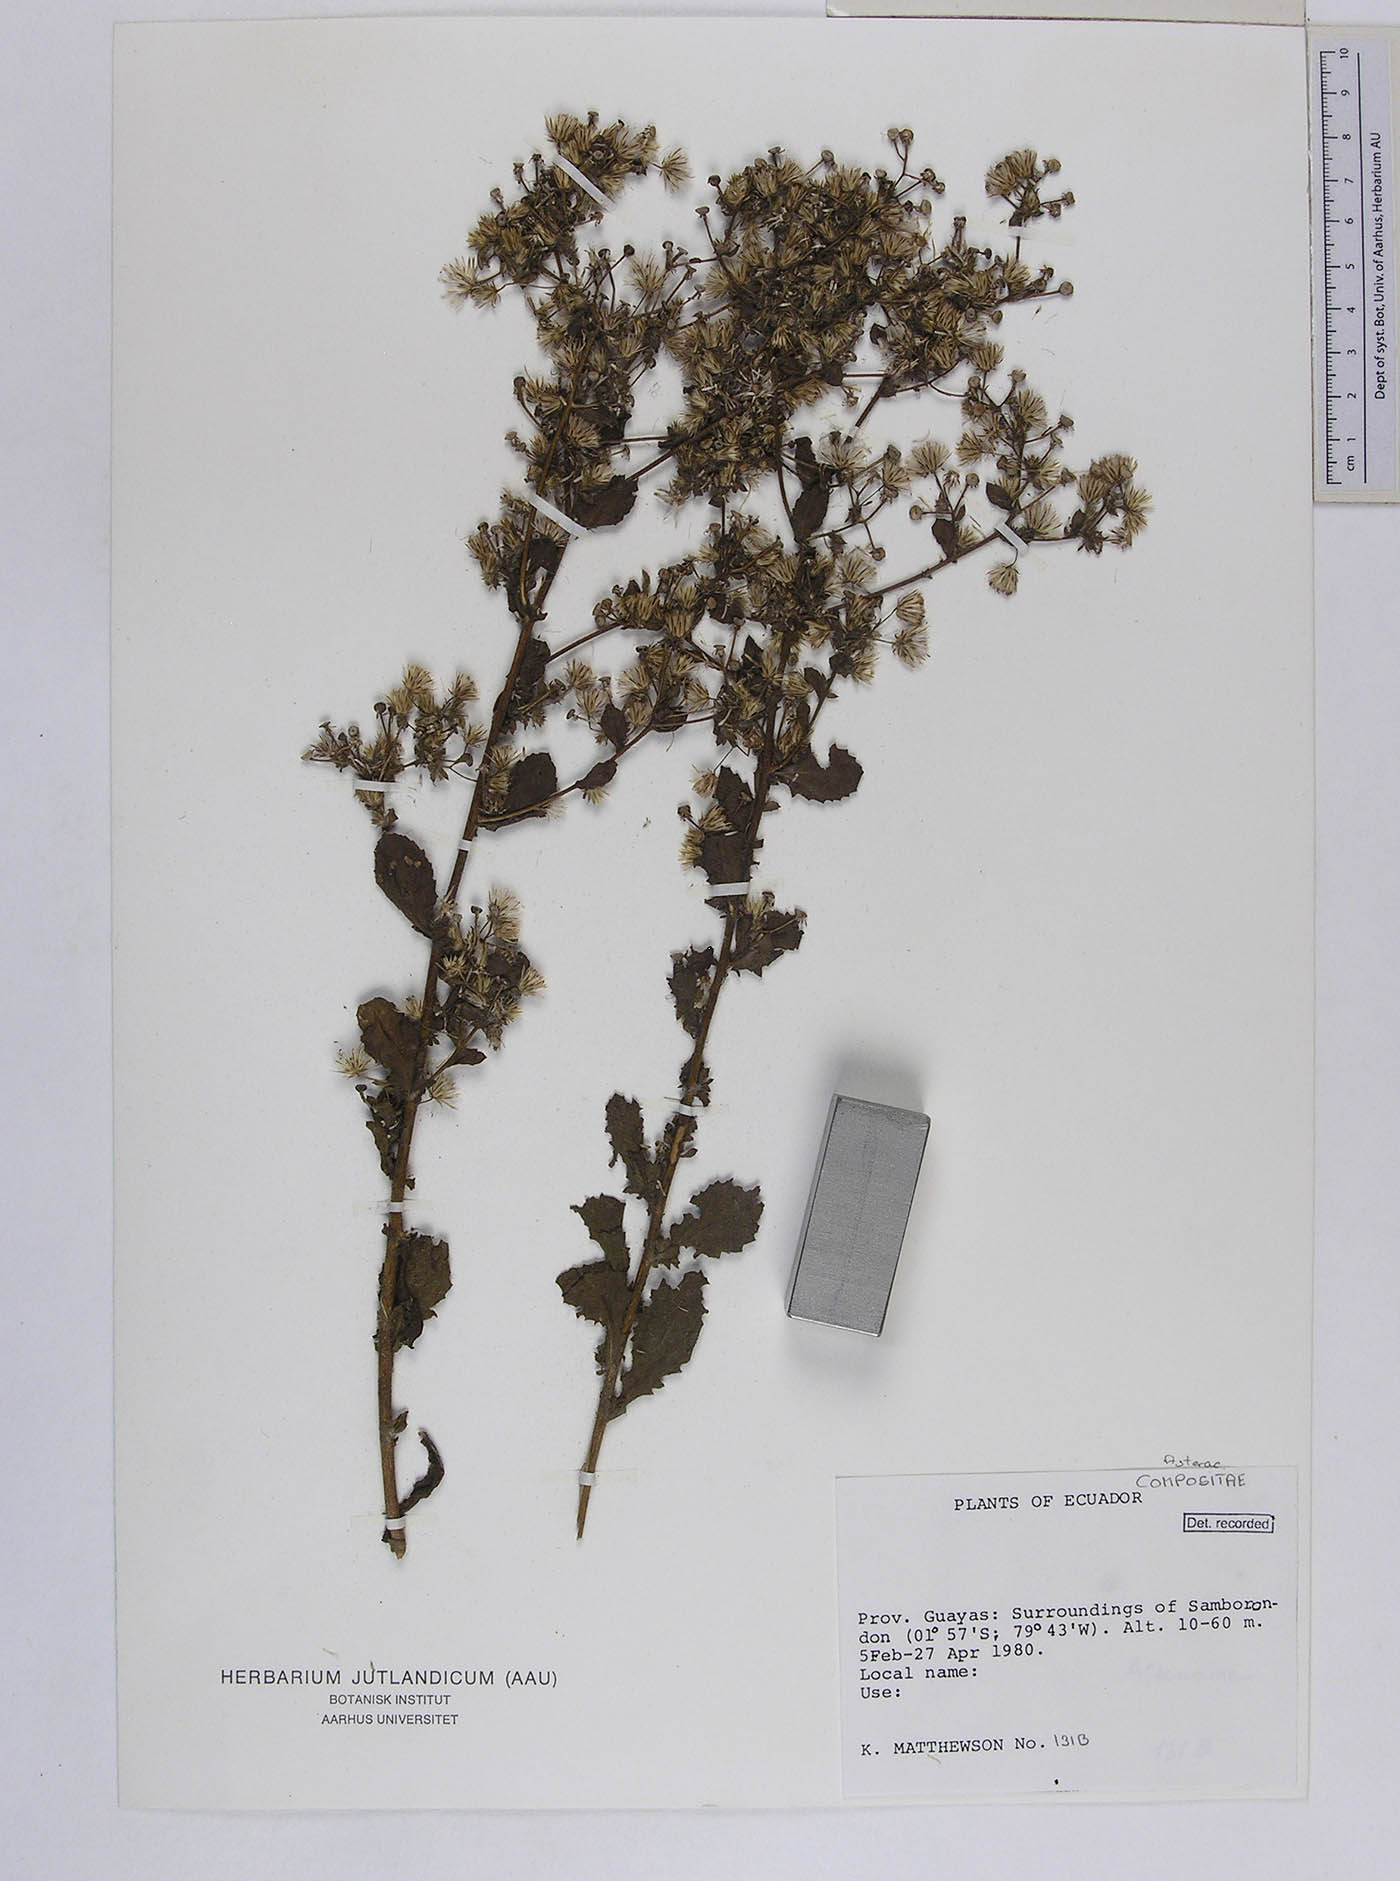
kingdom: Plantae
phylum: Tracheophyta
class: Magnoliopsida
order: Asterales
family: Asteraceae
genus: Pseudoconyza
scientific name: Pseudoconyza viscosa
